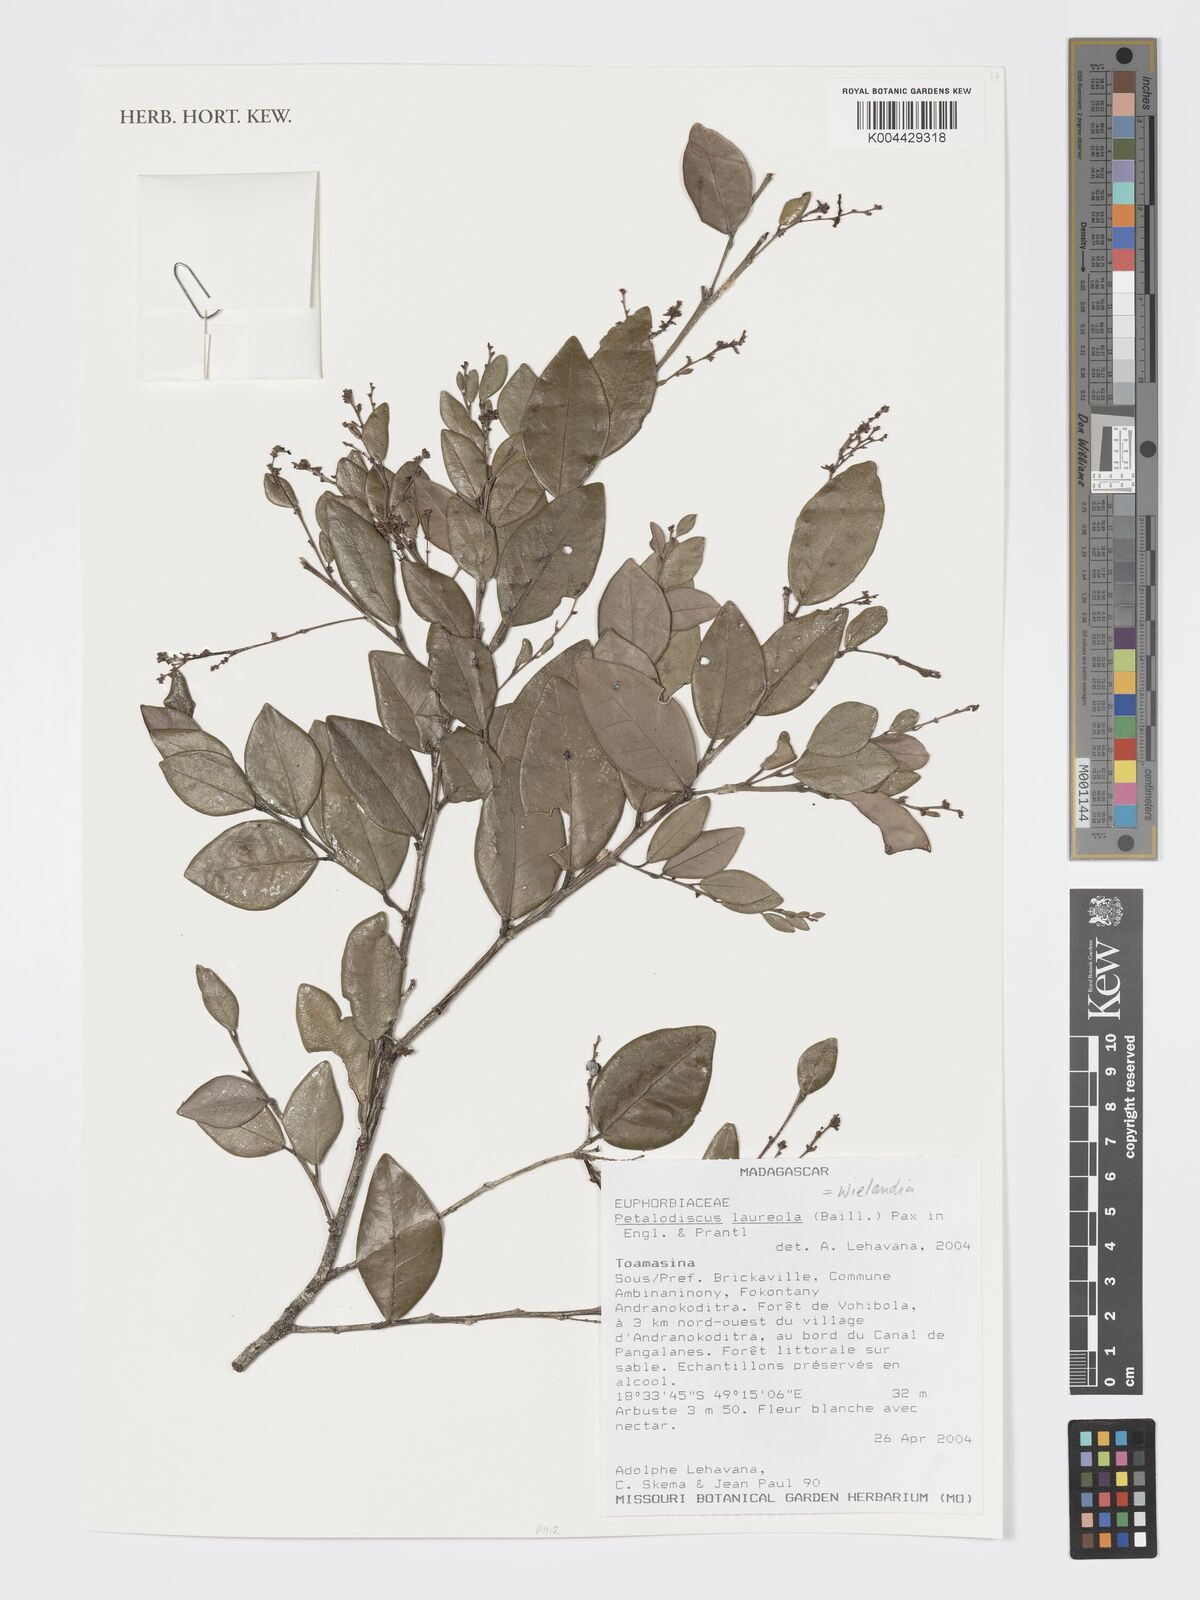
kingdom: Plantae
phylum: Tracheophyta
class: Magnoliopsida
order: Malpighiales
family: Phyllanthaceae
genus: Wielandia
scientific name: Wielandia laureola
